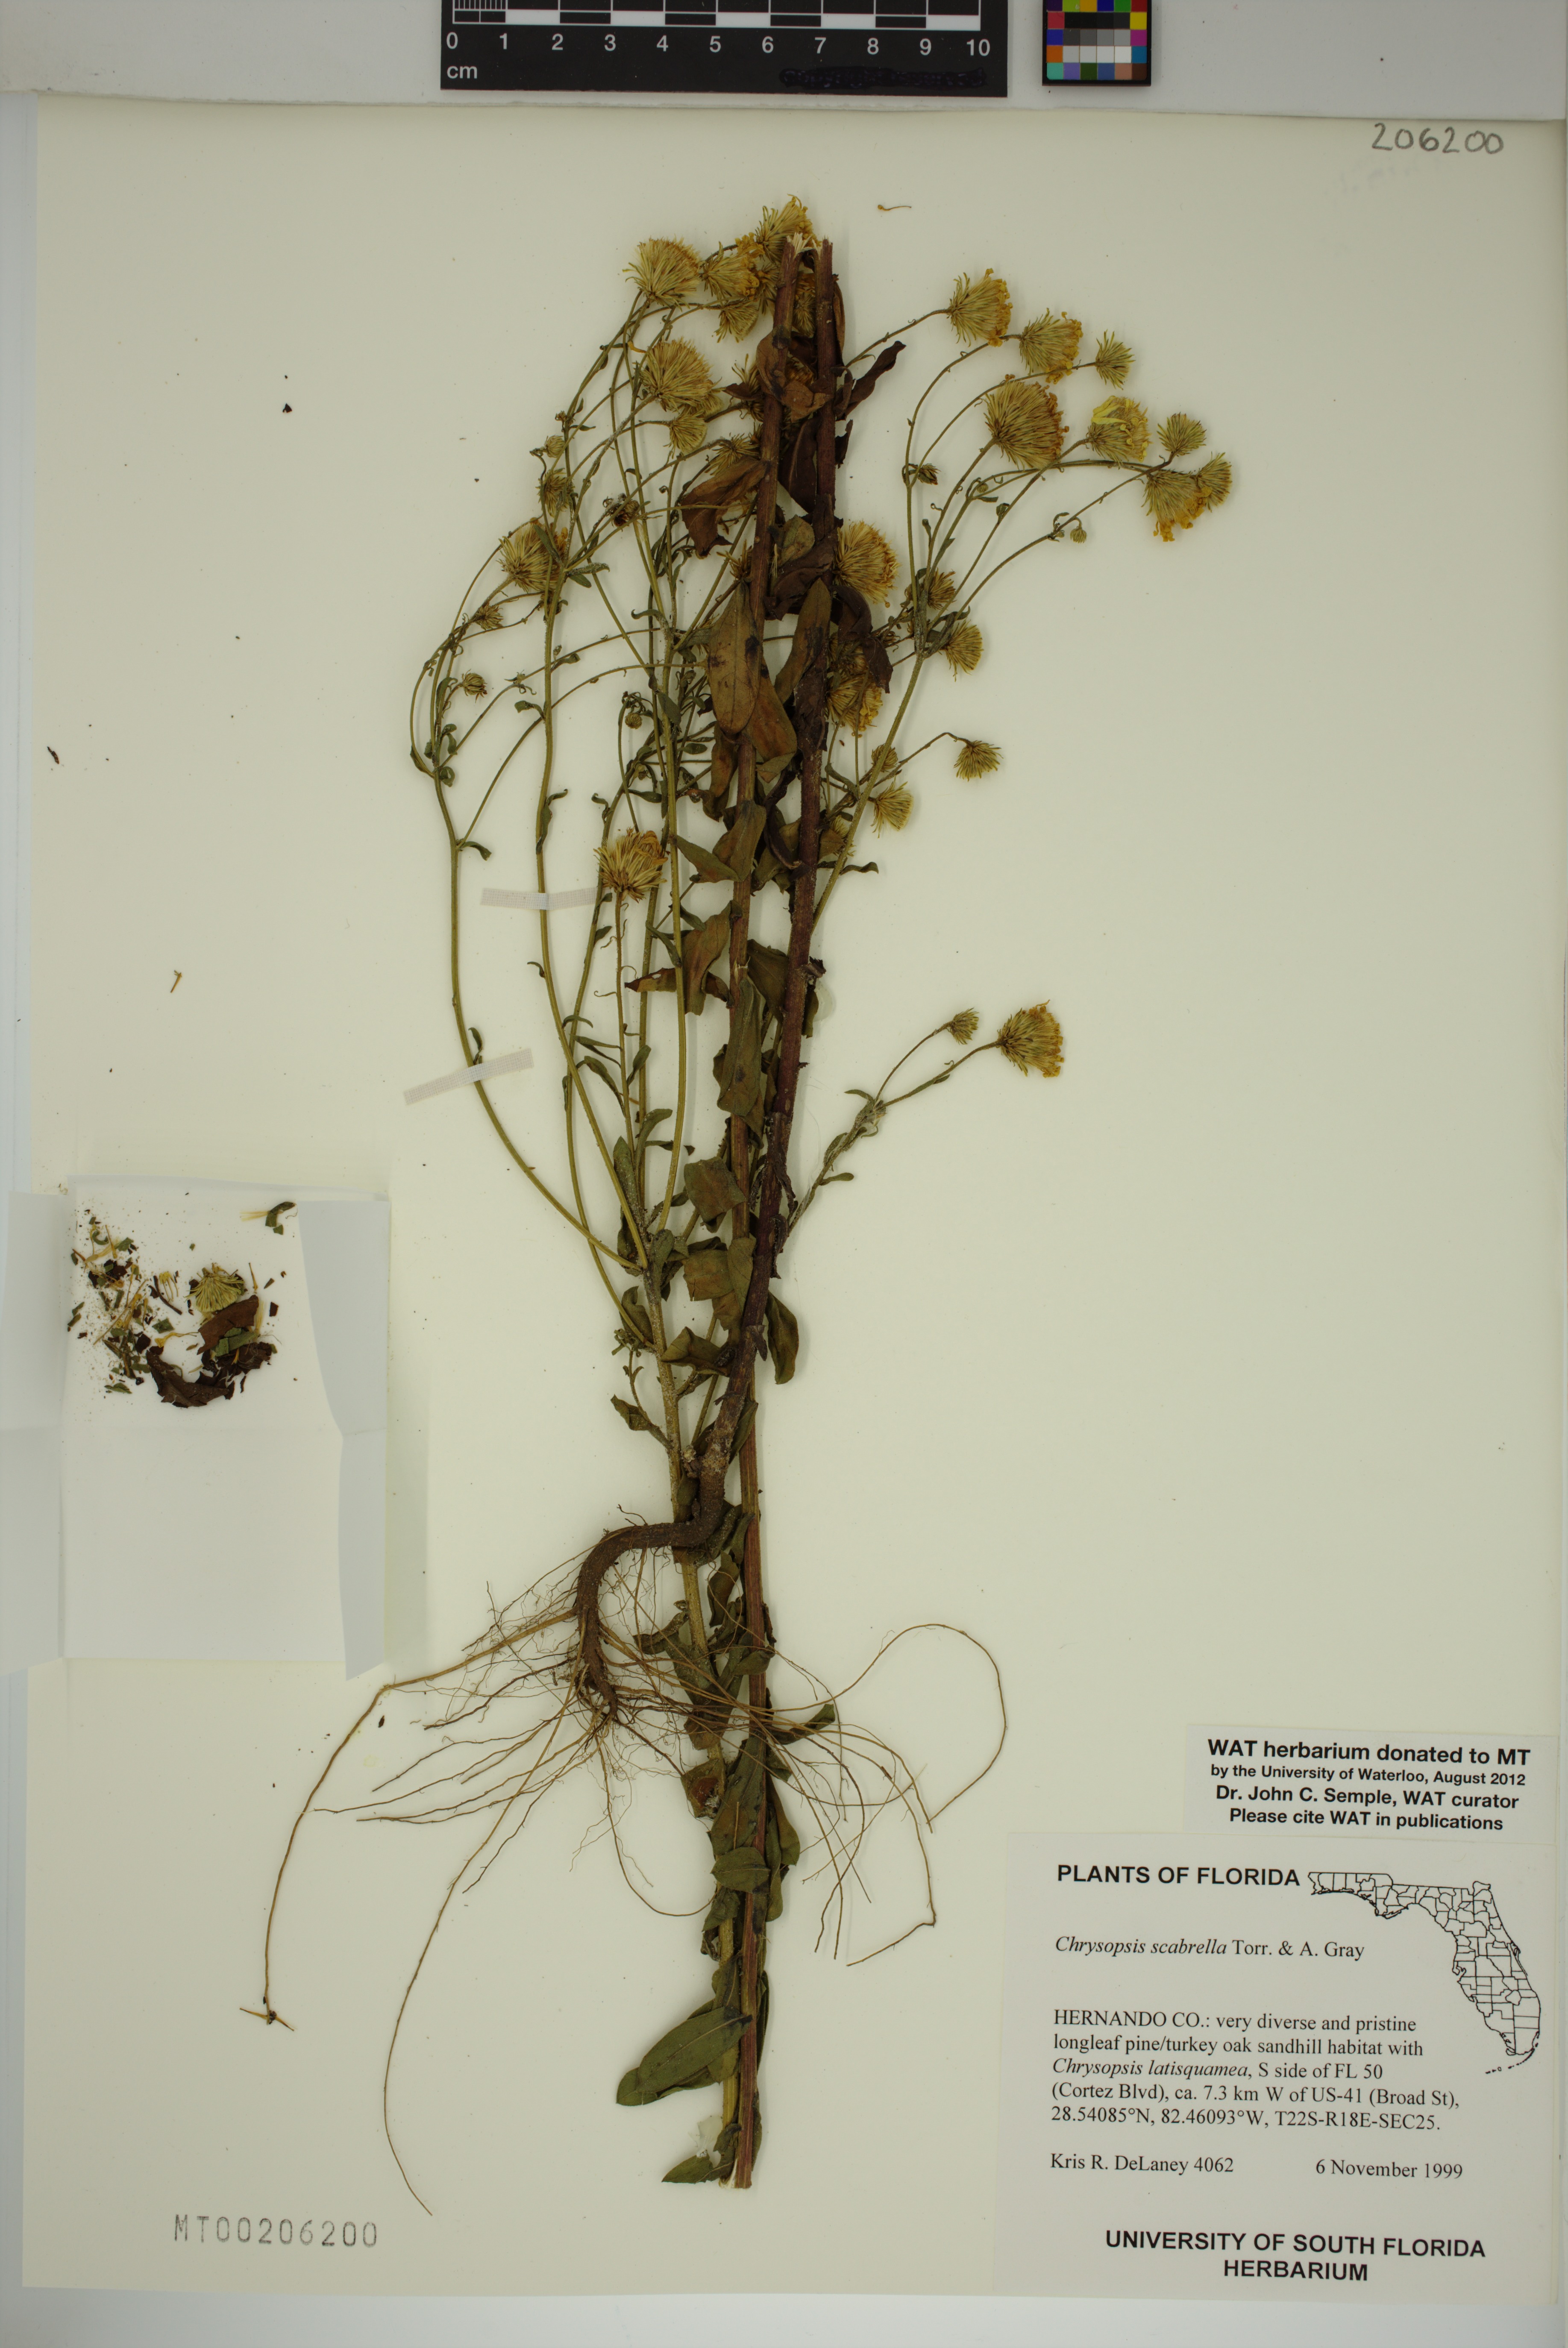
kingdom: Plantae
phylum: Tracheophyta
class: Magnoliopsida
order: Asterales
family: Asteraceae
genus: Chrysopsis
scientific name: Chrysopsis scabrella
